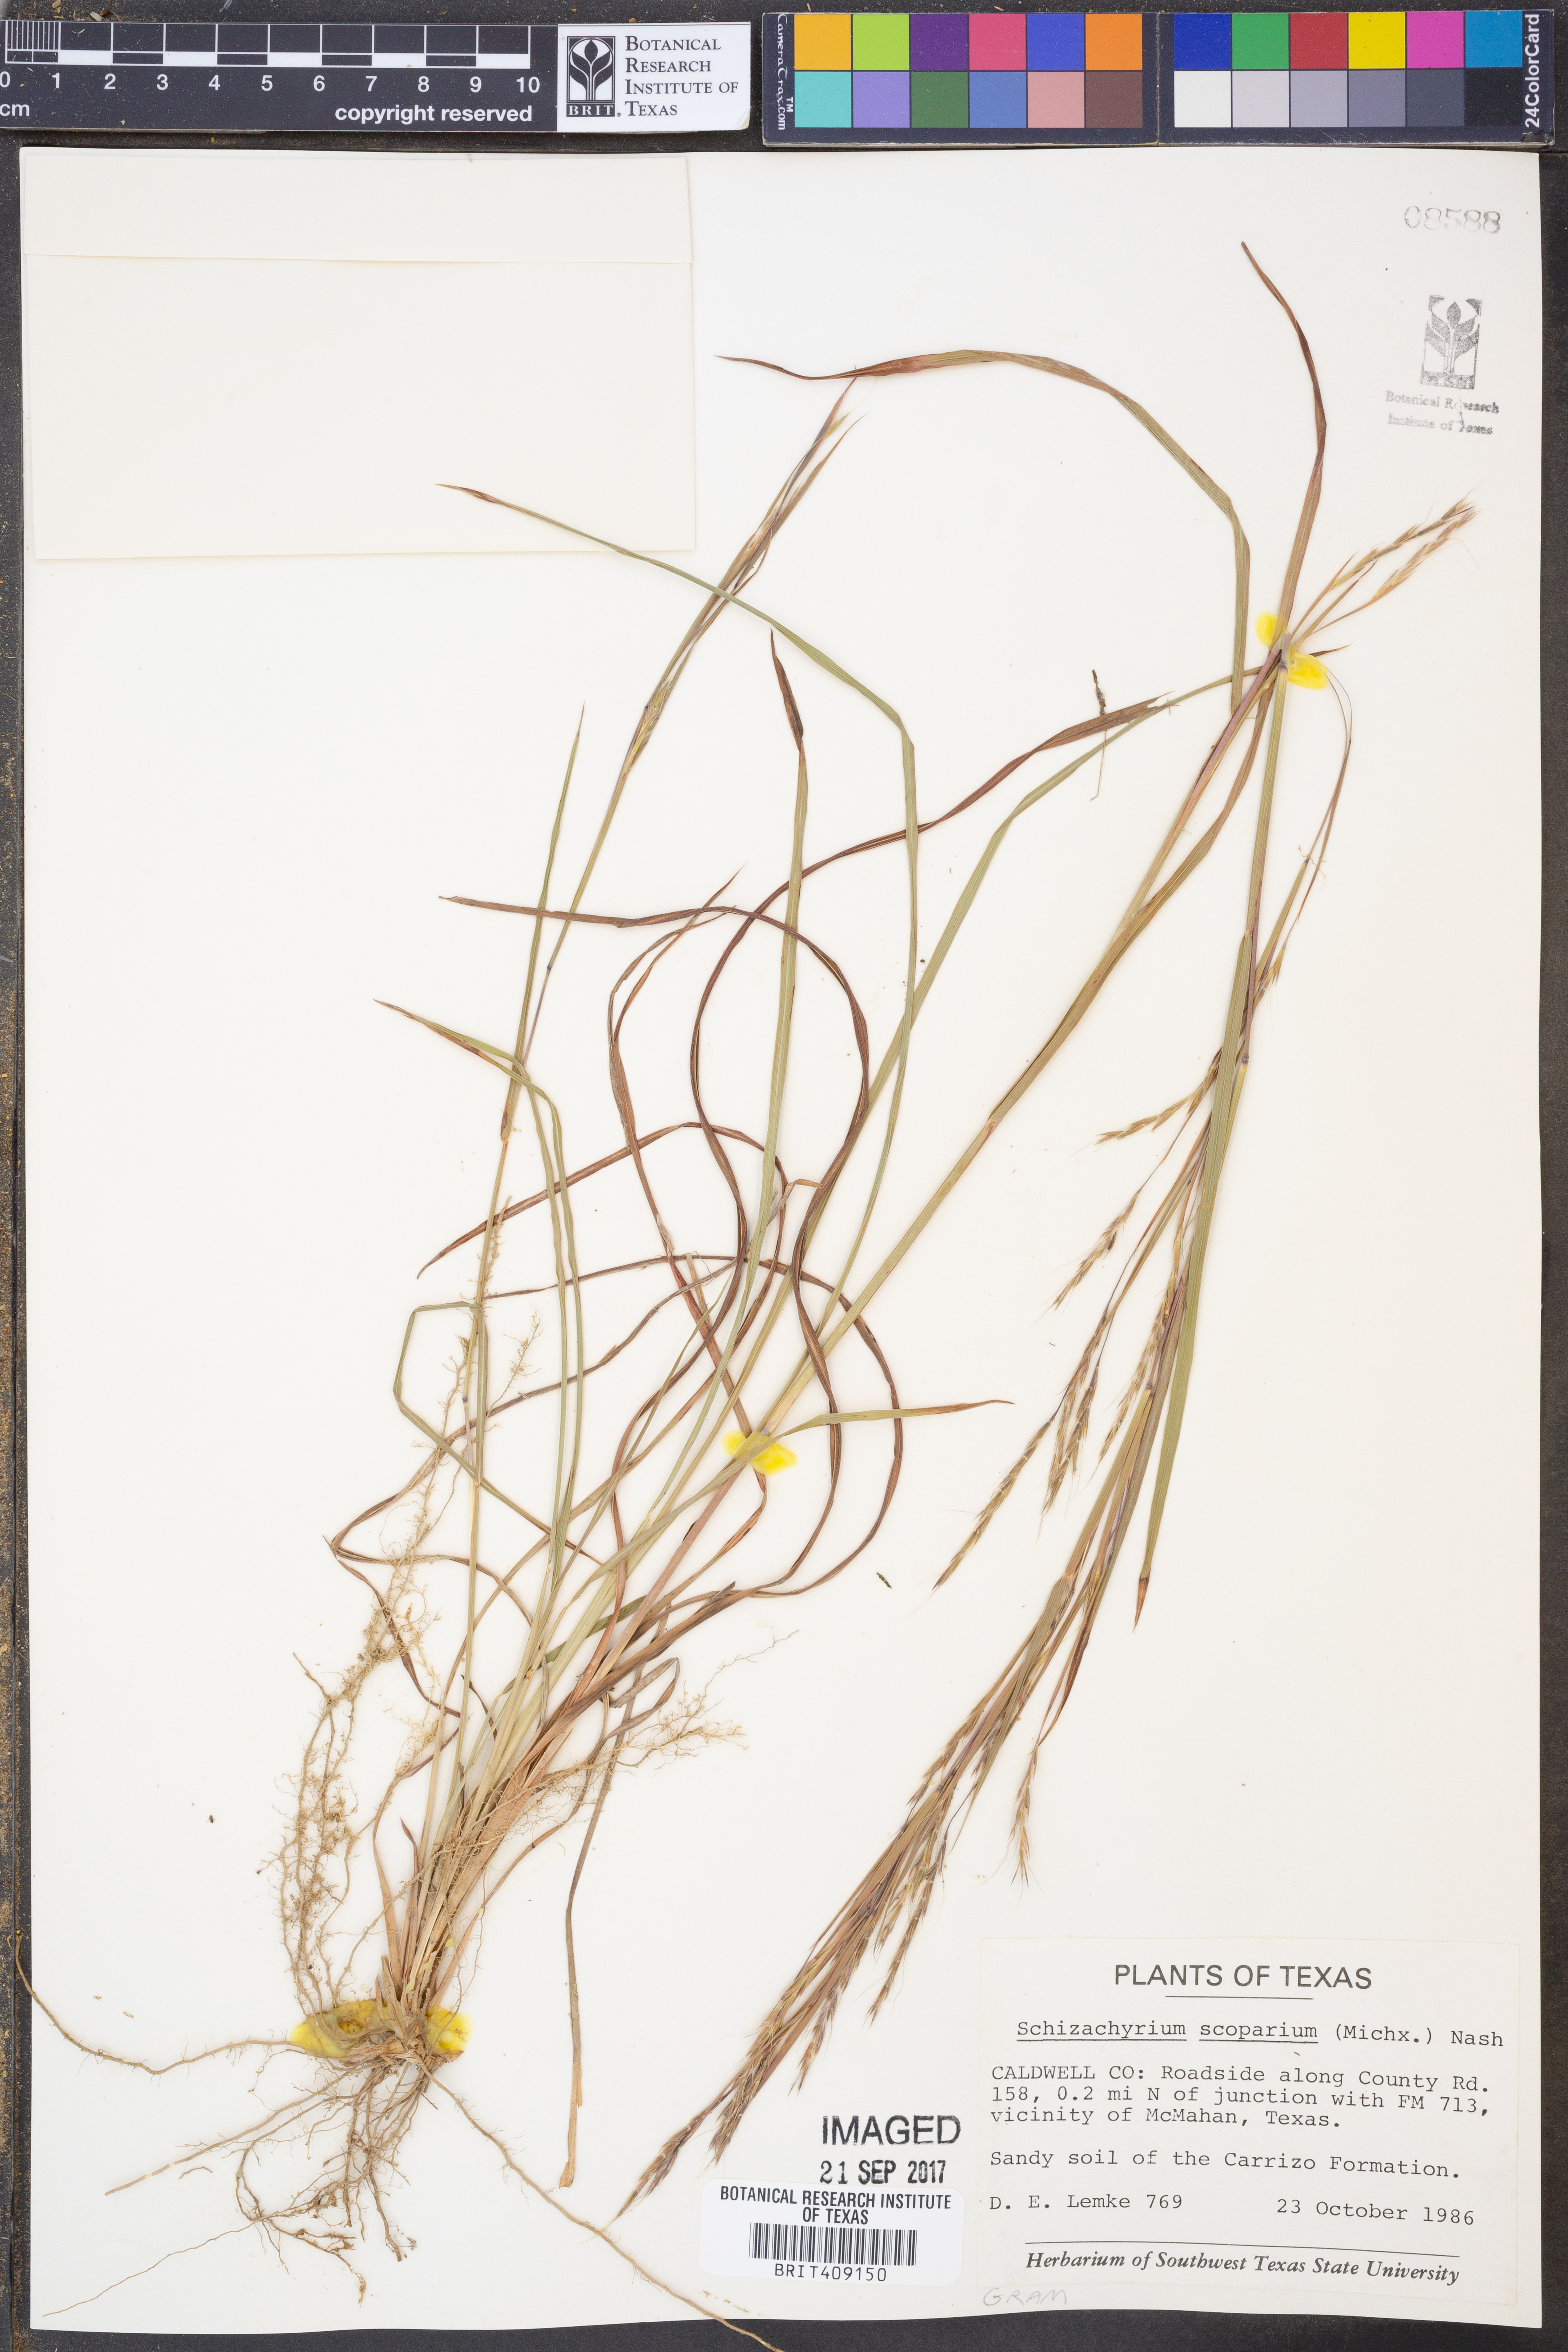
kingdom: Plantae
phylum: Tracheophyta
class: Liliopsida
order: Poales
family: Poaceae
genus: Schizachyrium
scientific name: Schizachyrium scoparium
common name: Little bluestem
